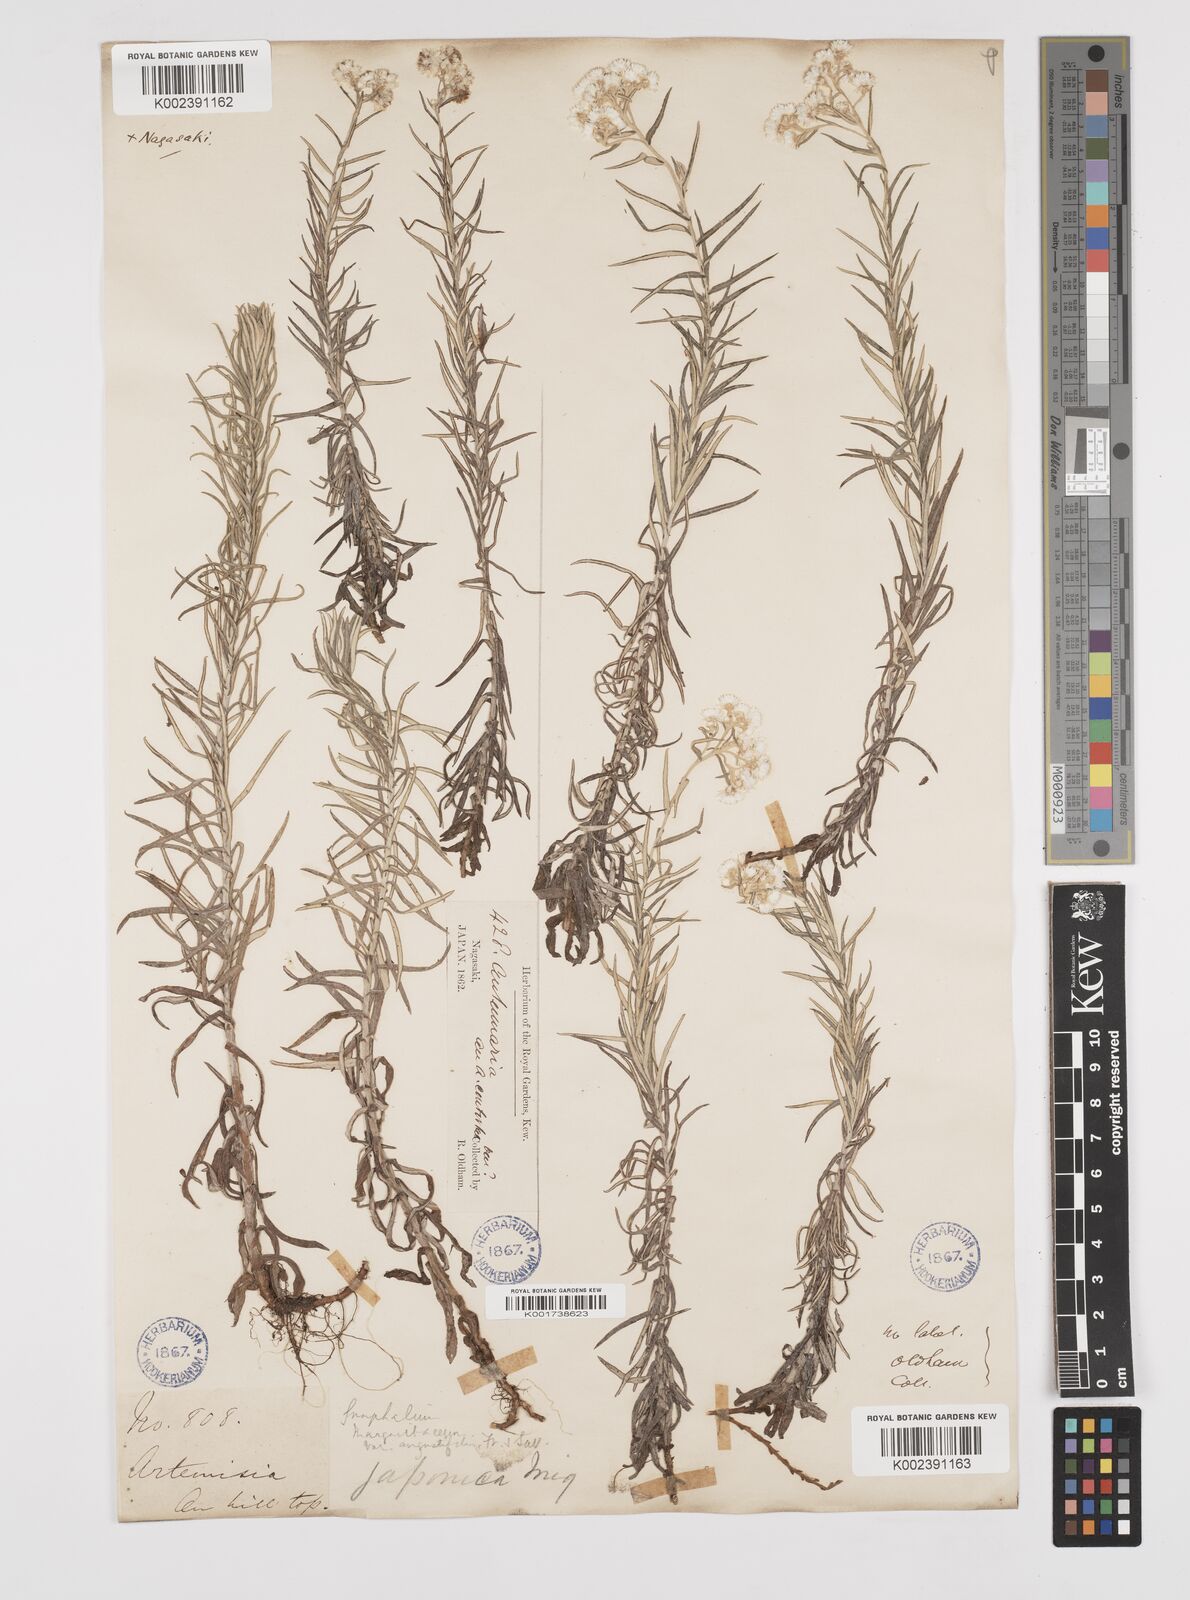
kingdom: Plantae
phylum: Tracheophyta
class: Magnoliopsida
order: Asterales
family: Asteraceae
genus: Anaphalis
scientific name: Anaphalis margaritacea
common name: Pearly everlasting
